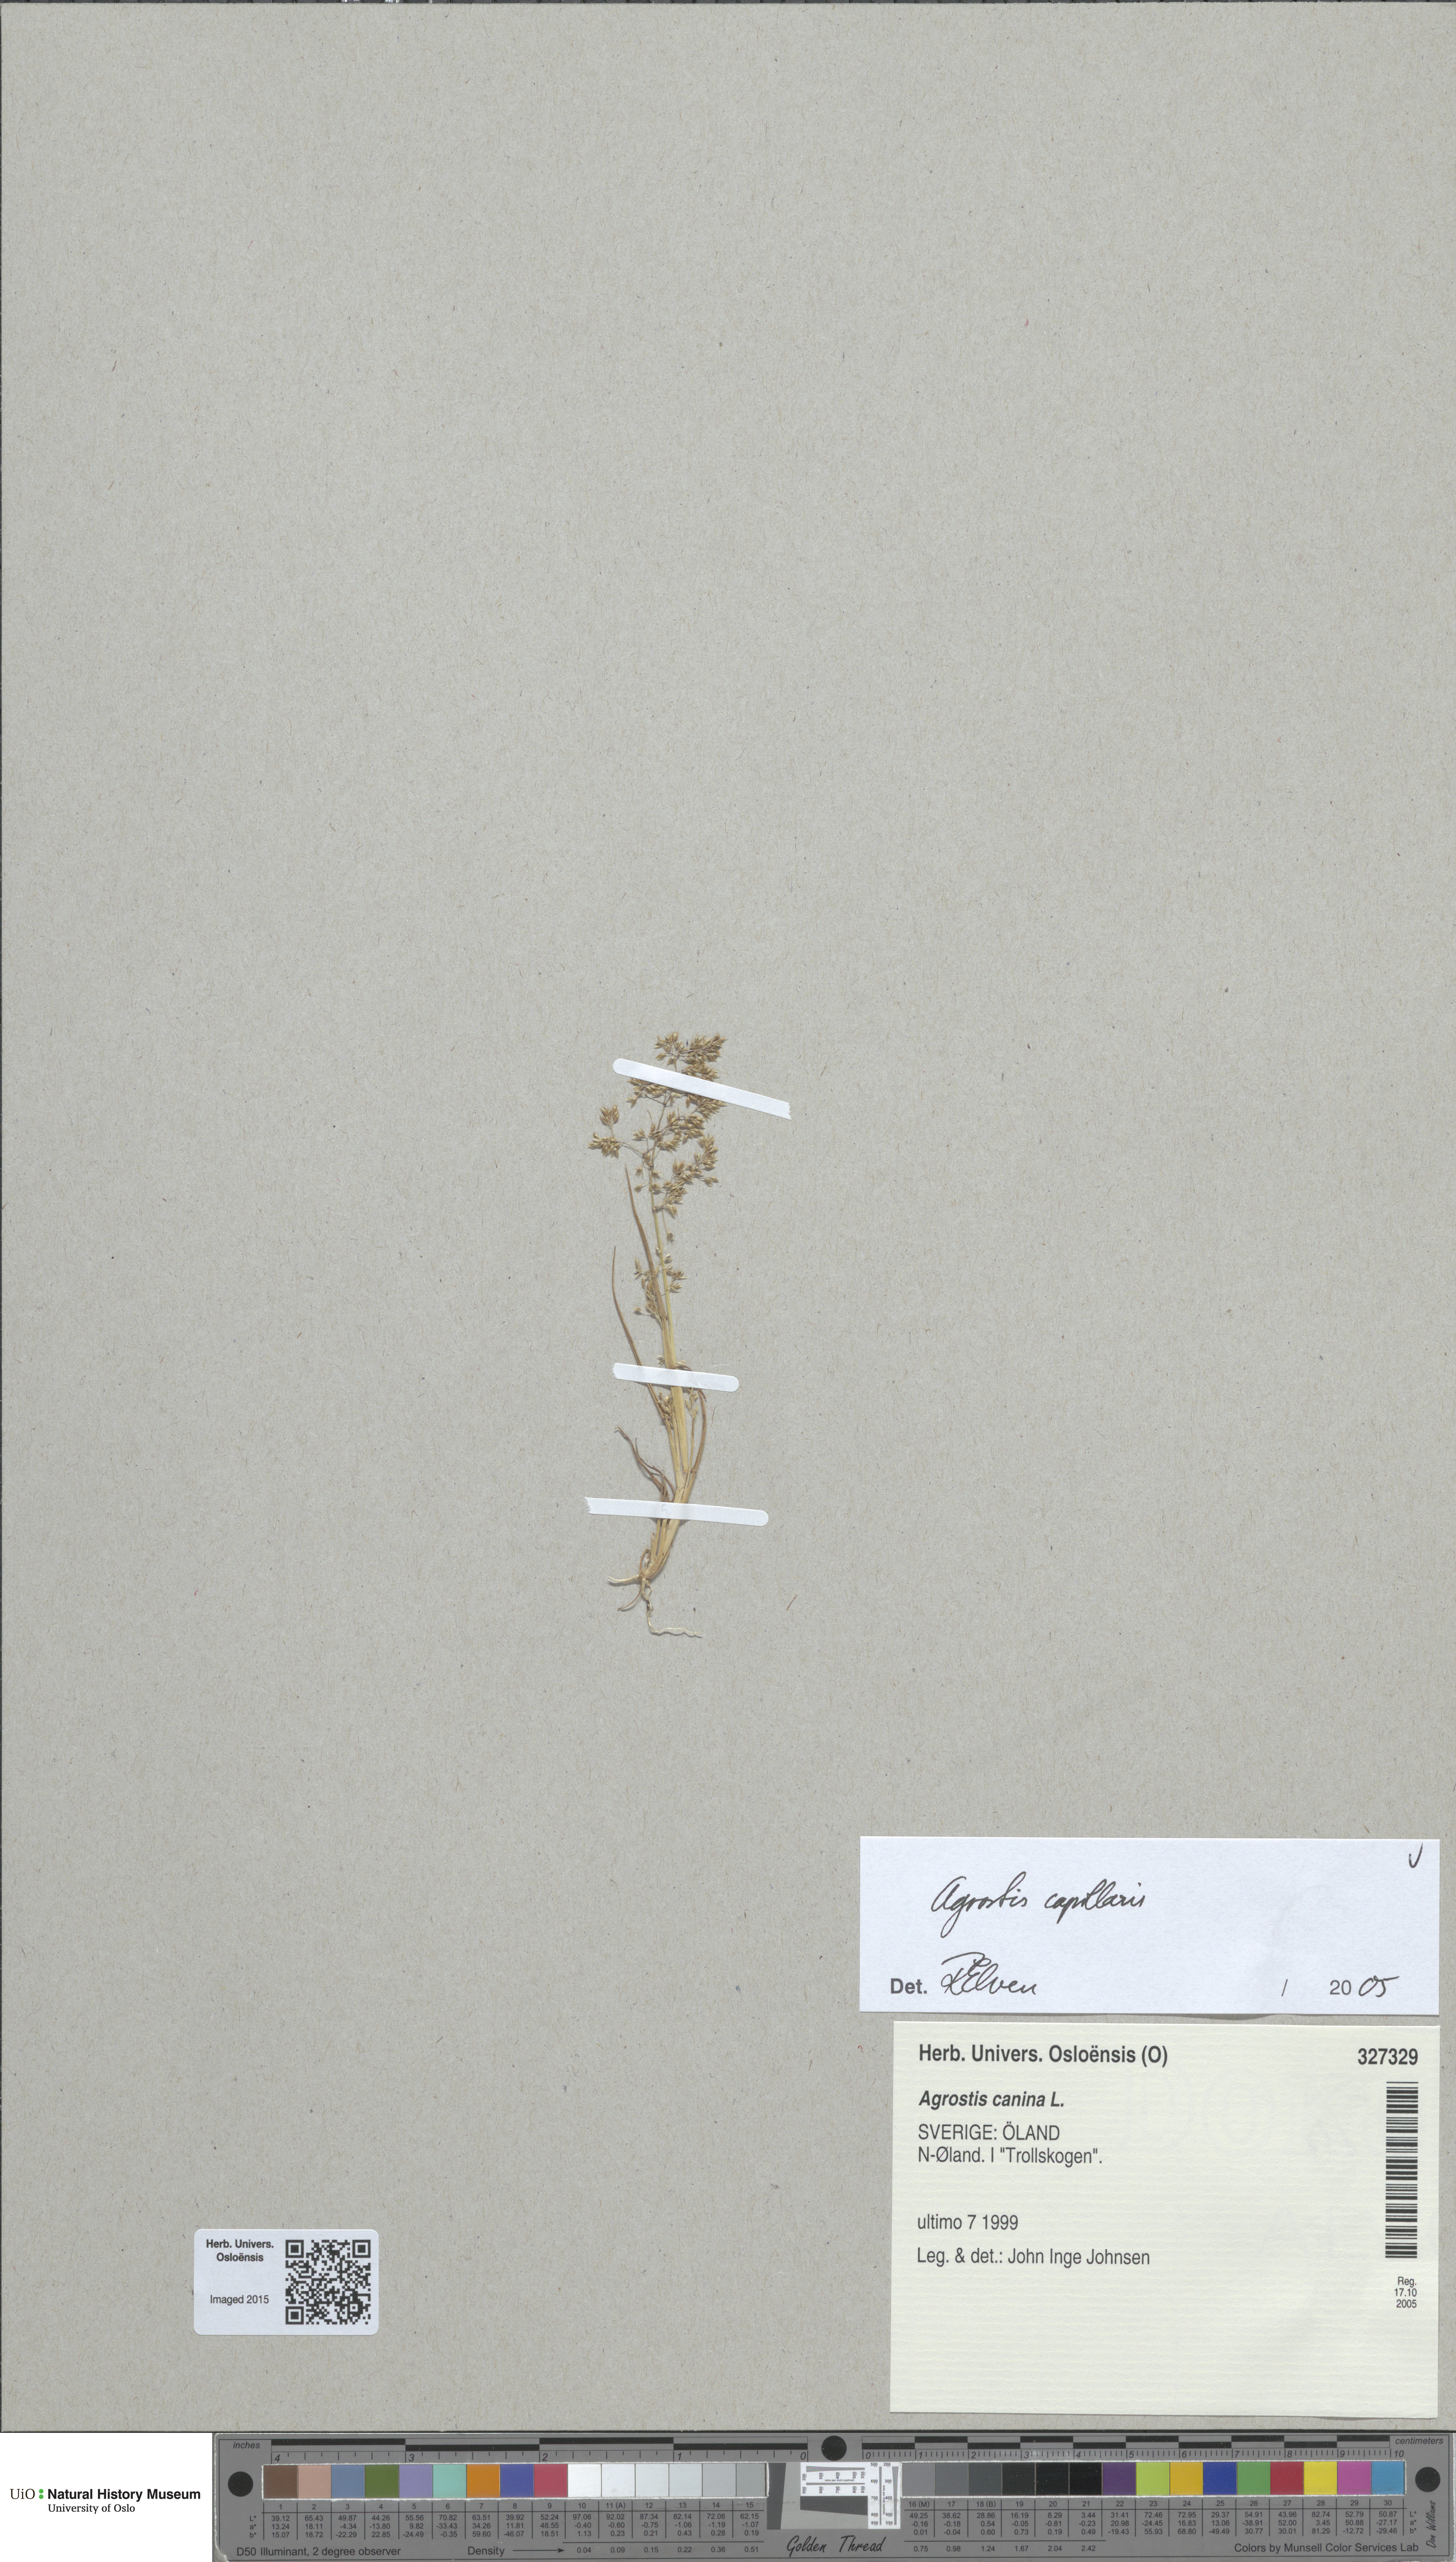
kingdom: Plantae
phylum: Tracheophyta
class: Liliopsida
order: Poales
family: Poaceae
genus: Agrostis
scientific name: Agrostis capillaris
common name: Colonial bentgrass
